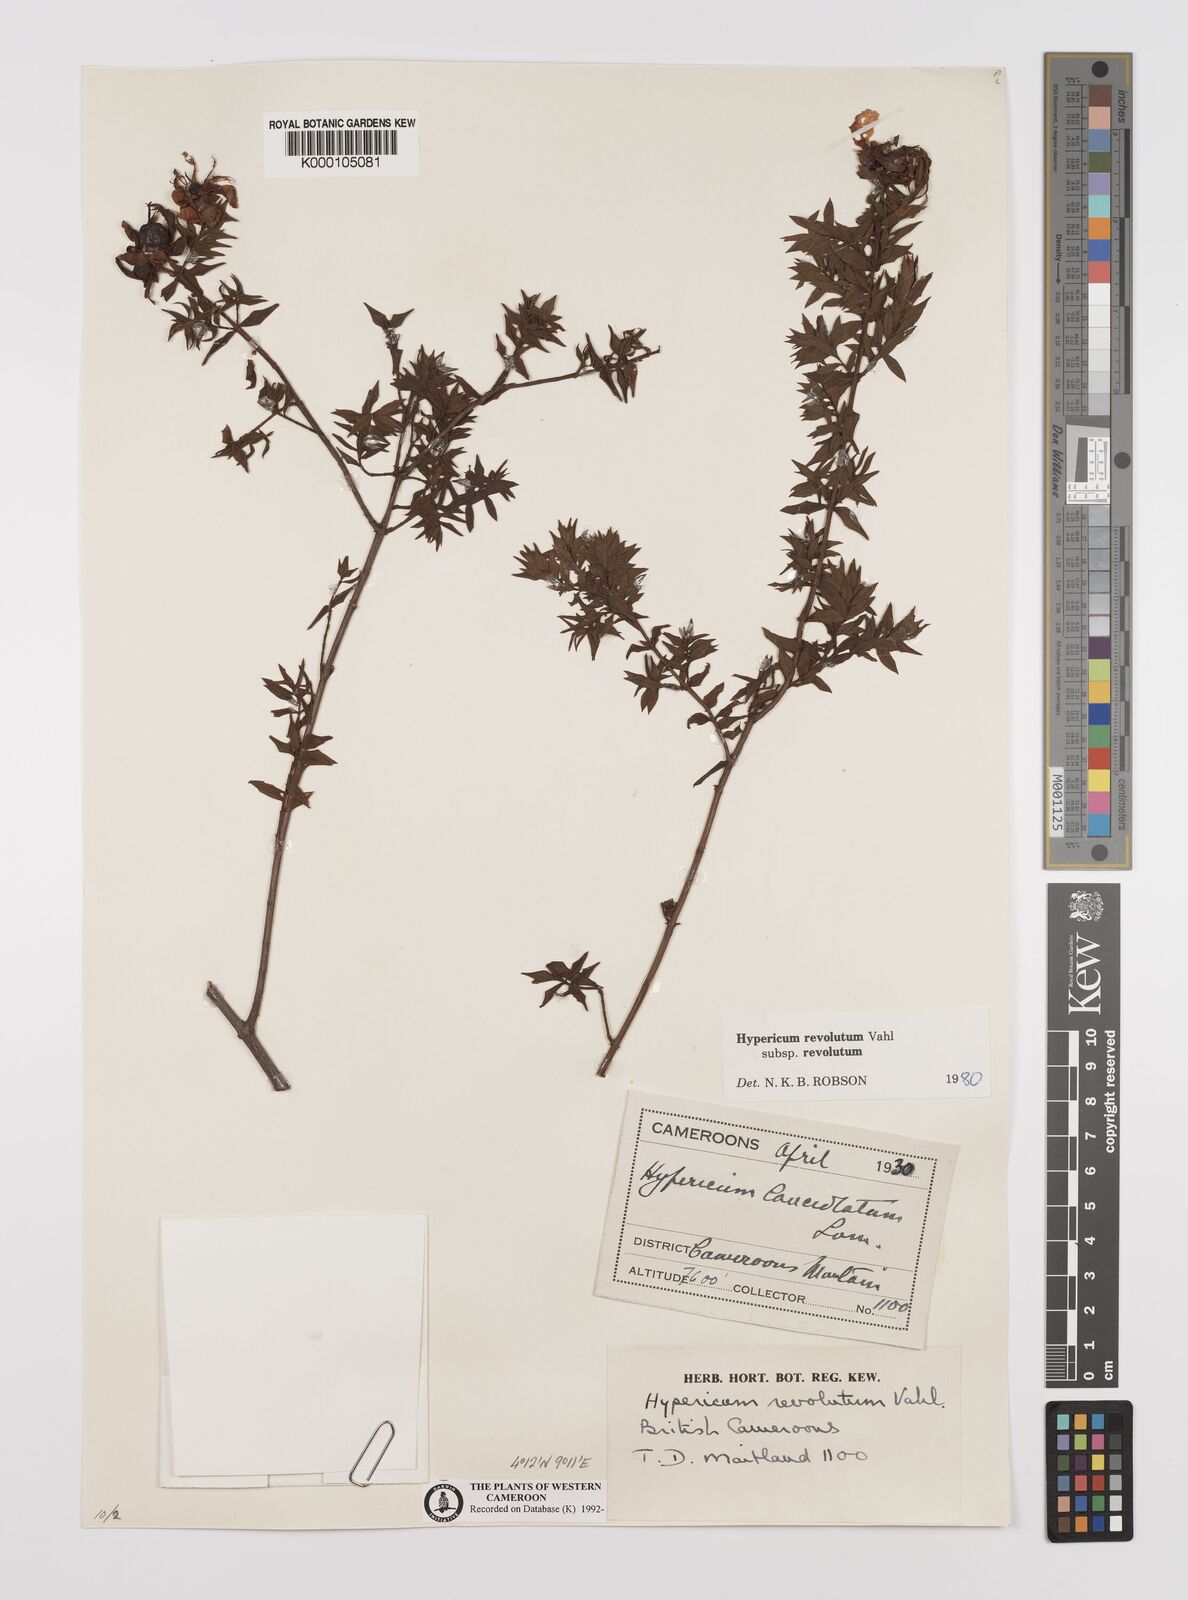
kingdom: Plantae
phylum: Tracheophyta
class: Magnoliopsida
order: Malpighiales
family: Hypericaceae
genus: Hypericum
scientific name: Hypericum revolutum
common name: Curry bush
